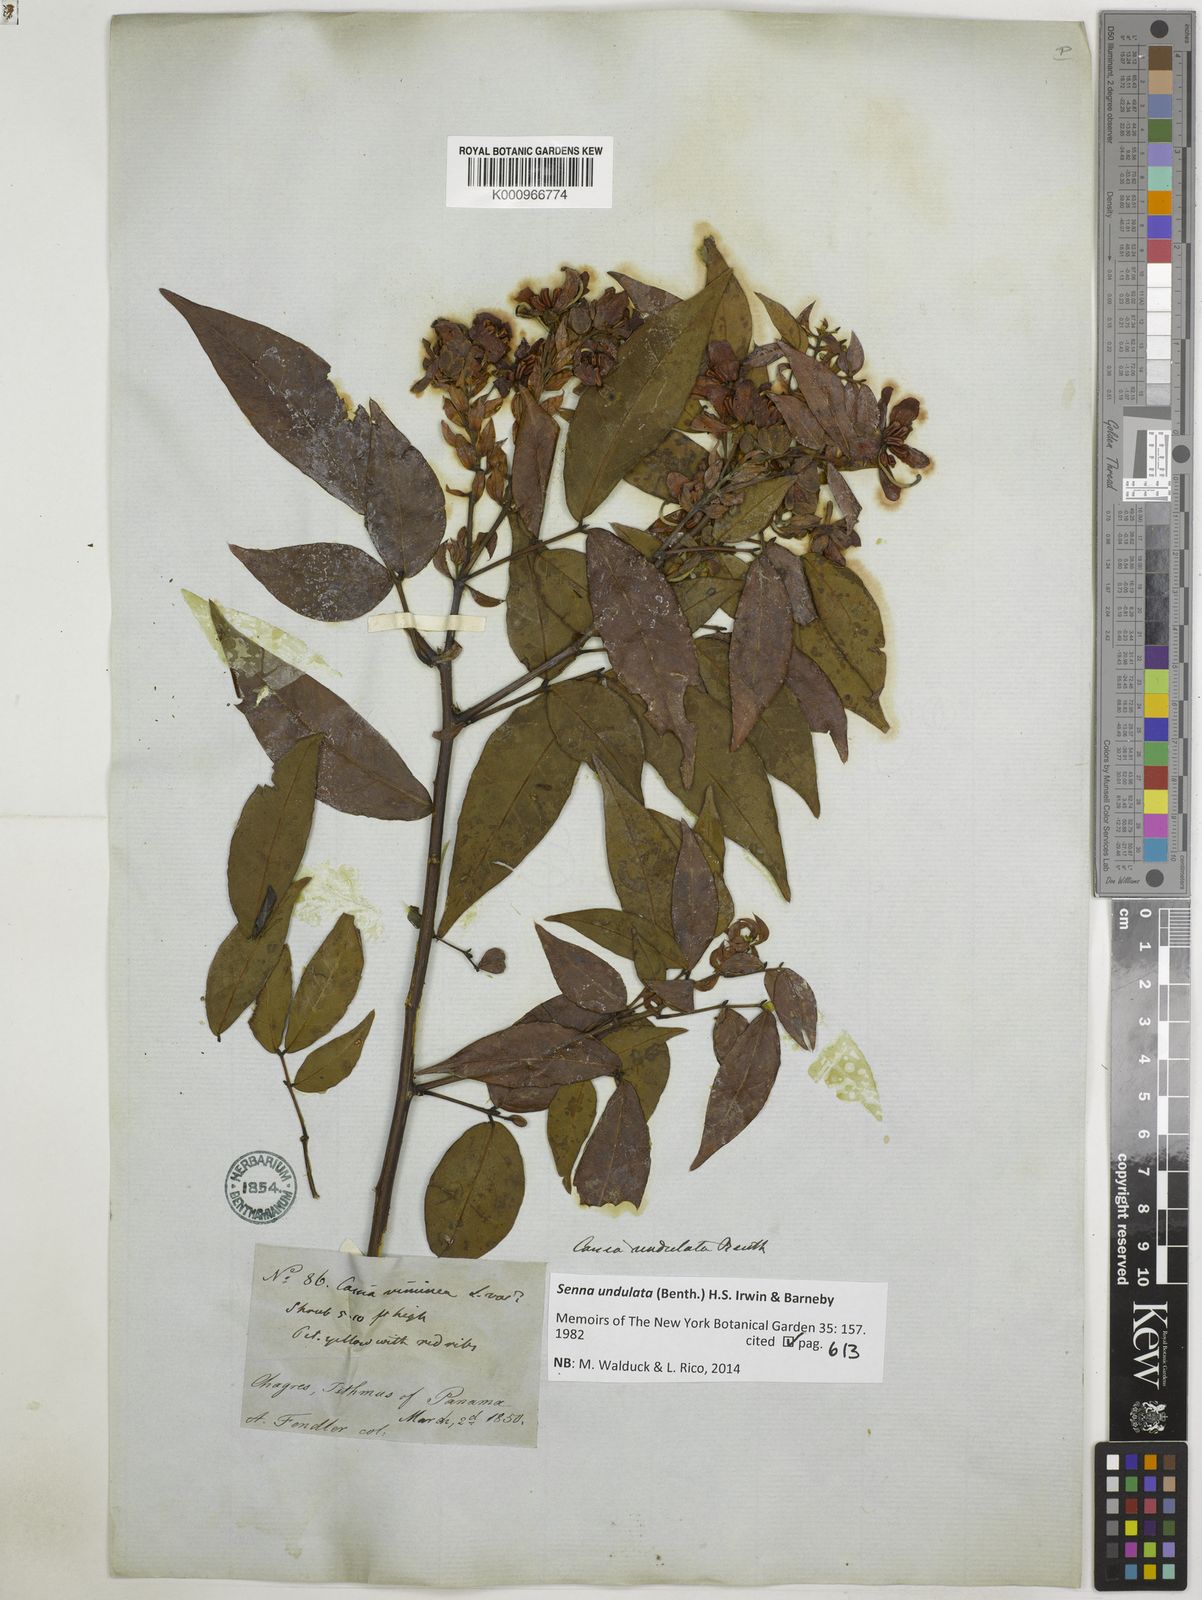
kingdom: Plantae
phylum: Tracheophyta
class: Magnoliopsida
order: Fabales
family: Fabaceae
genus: Senna
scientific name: Senna undulata
